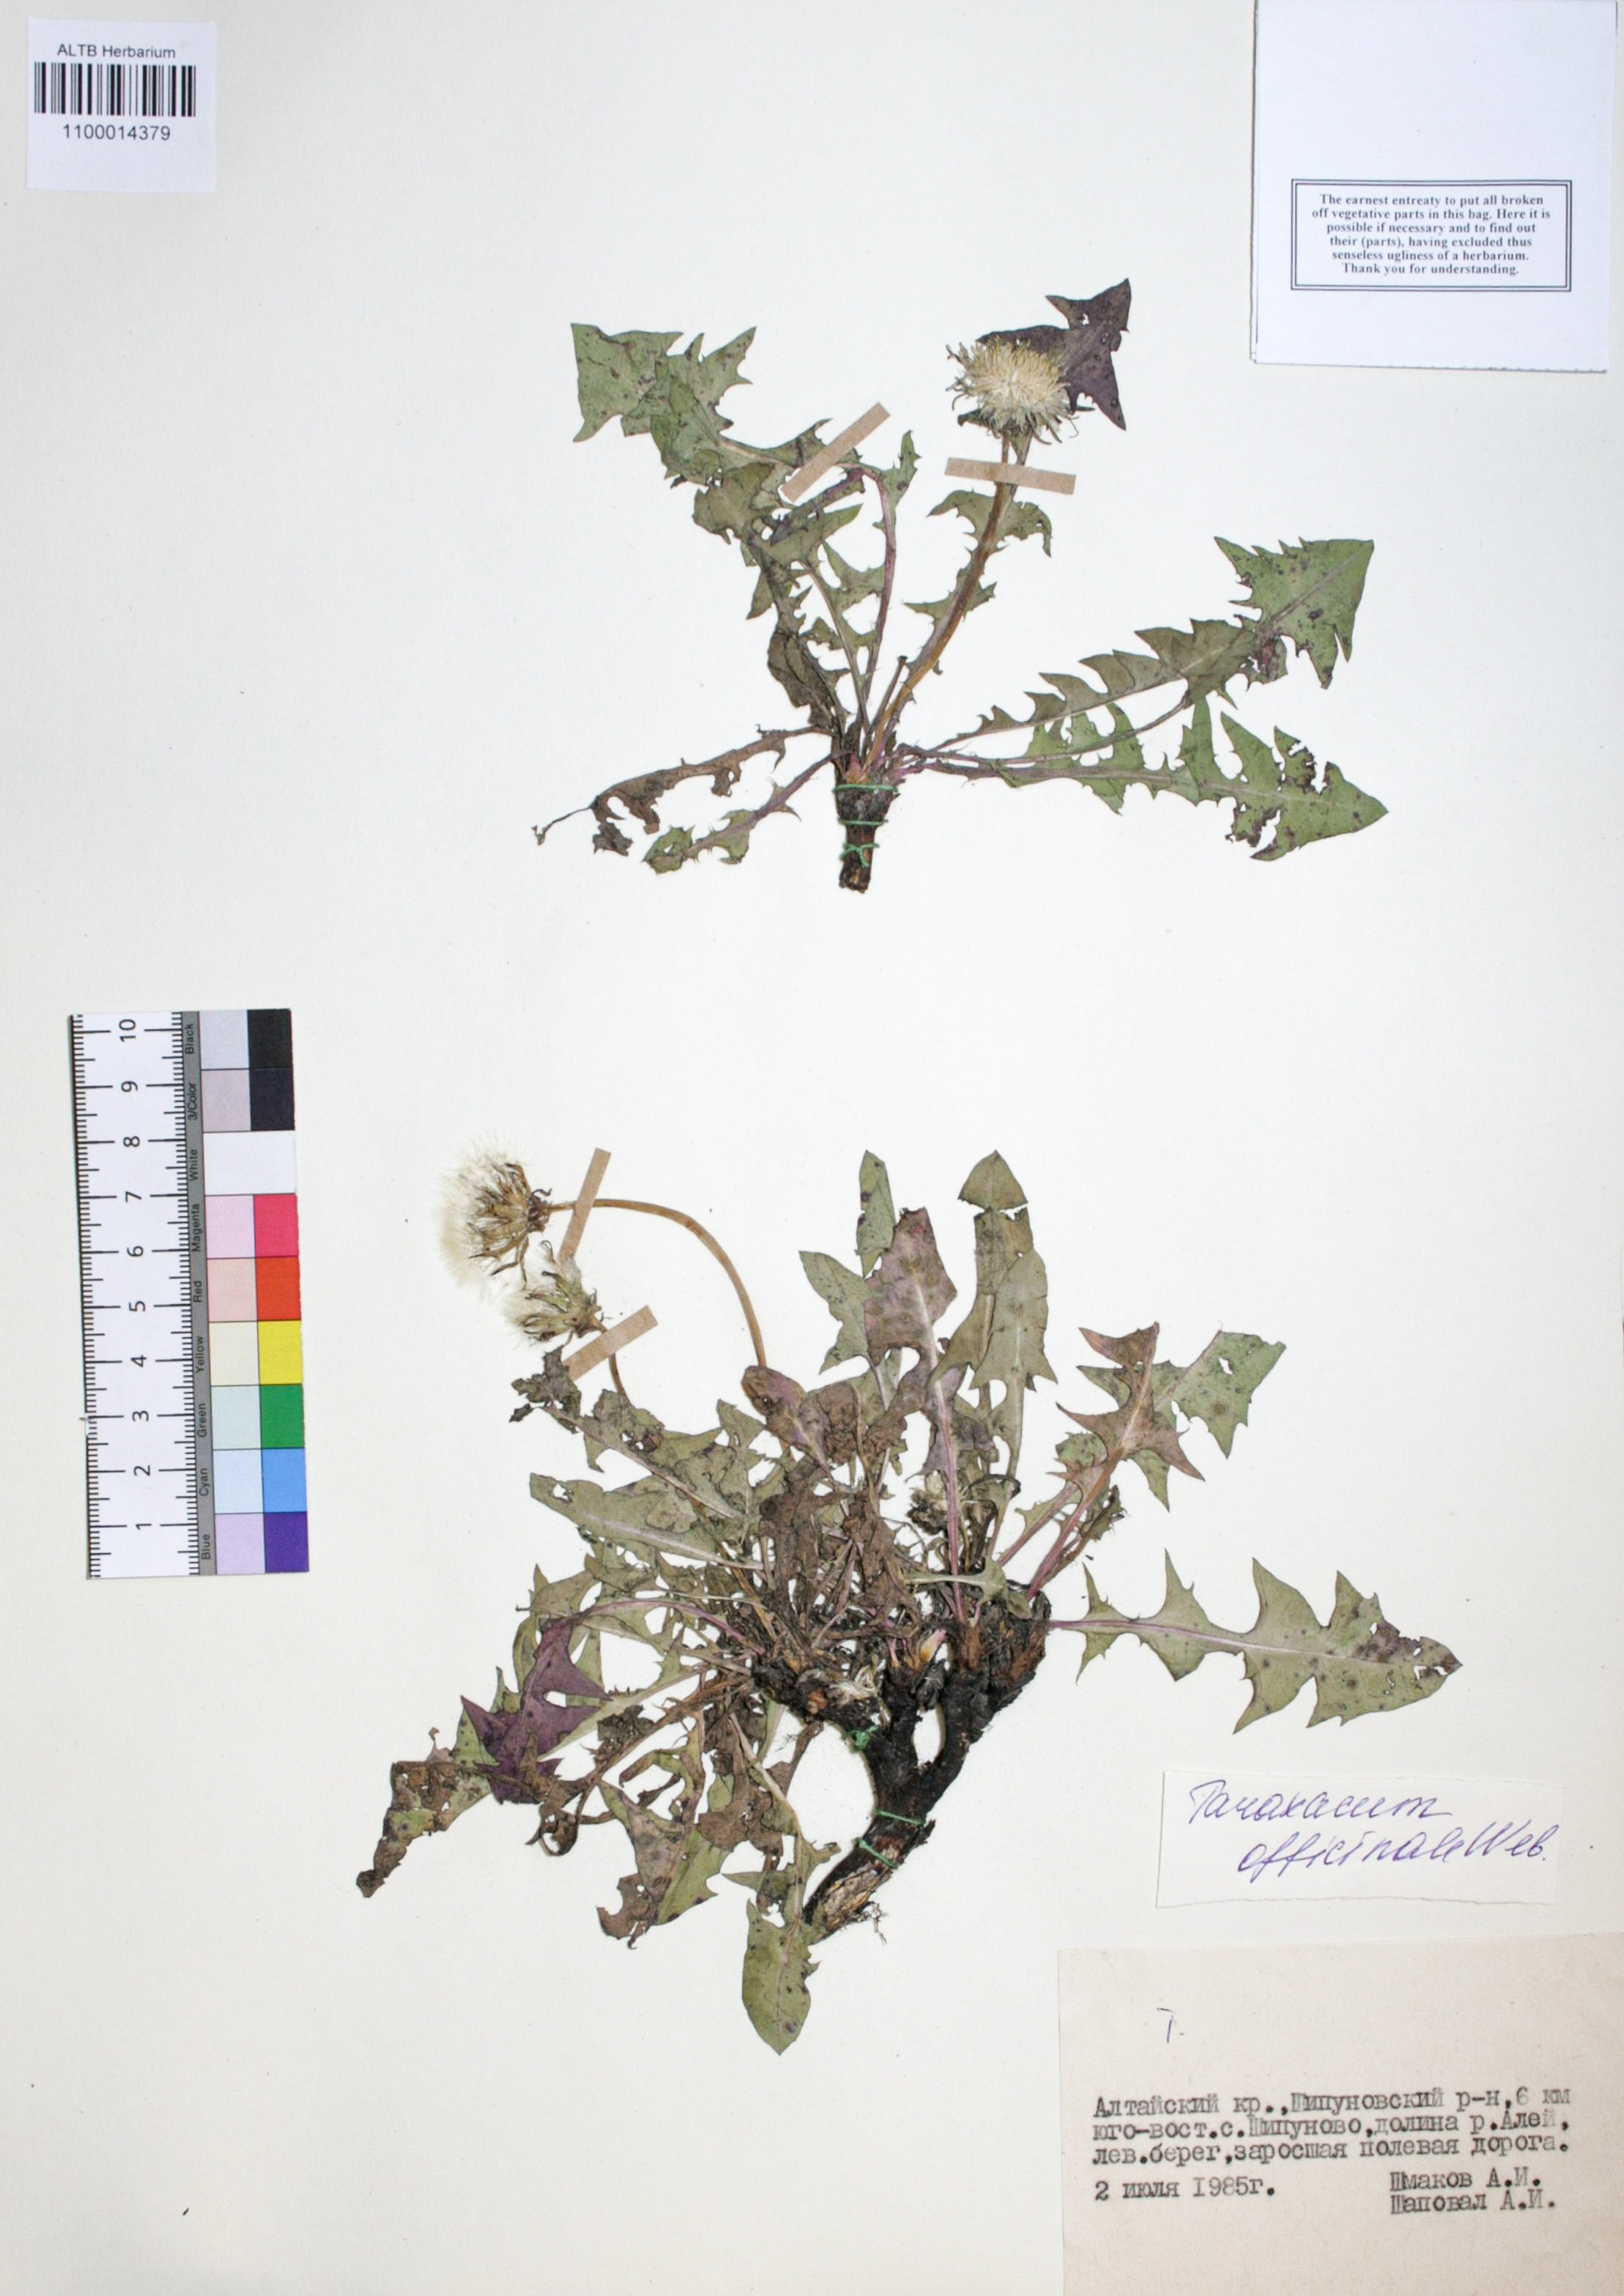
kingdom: Plantae
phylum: Tracheophyta
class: Magnoliopsida
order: Asterales
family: Asteraceae
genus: Taraxacum
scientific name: Taraxacum officinale
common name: Common dandelion
